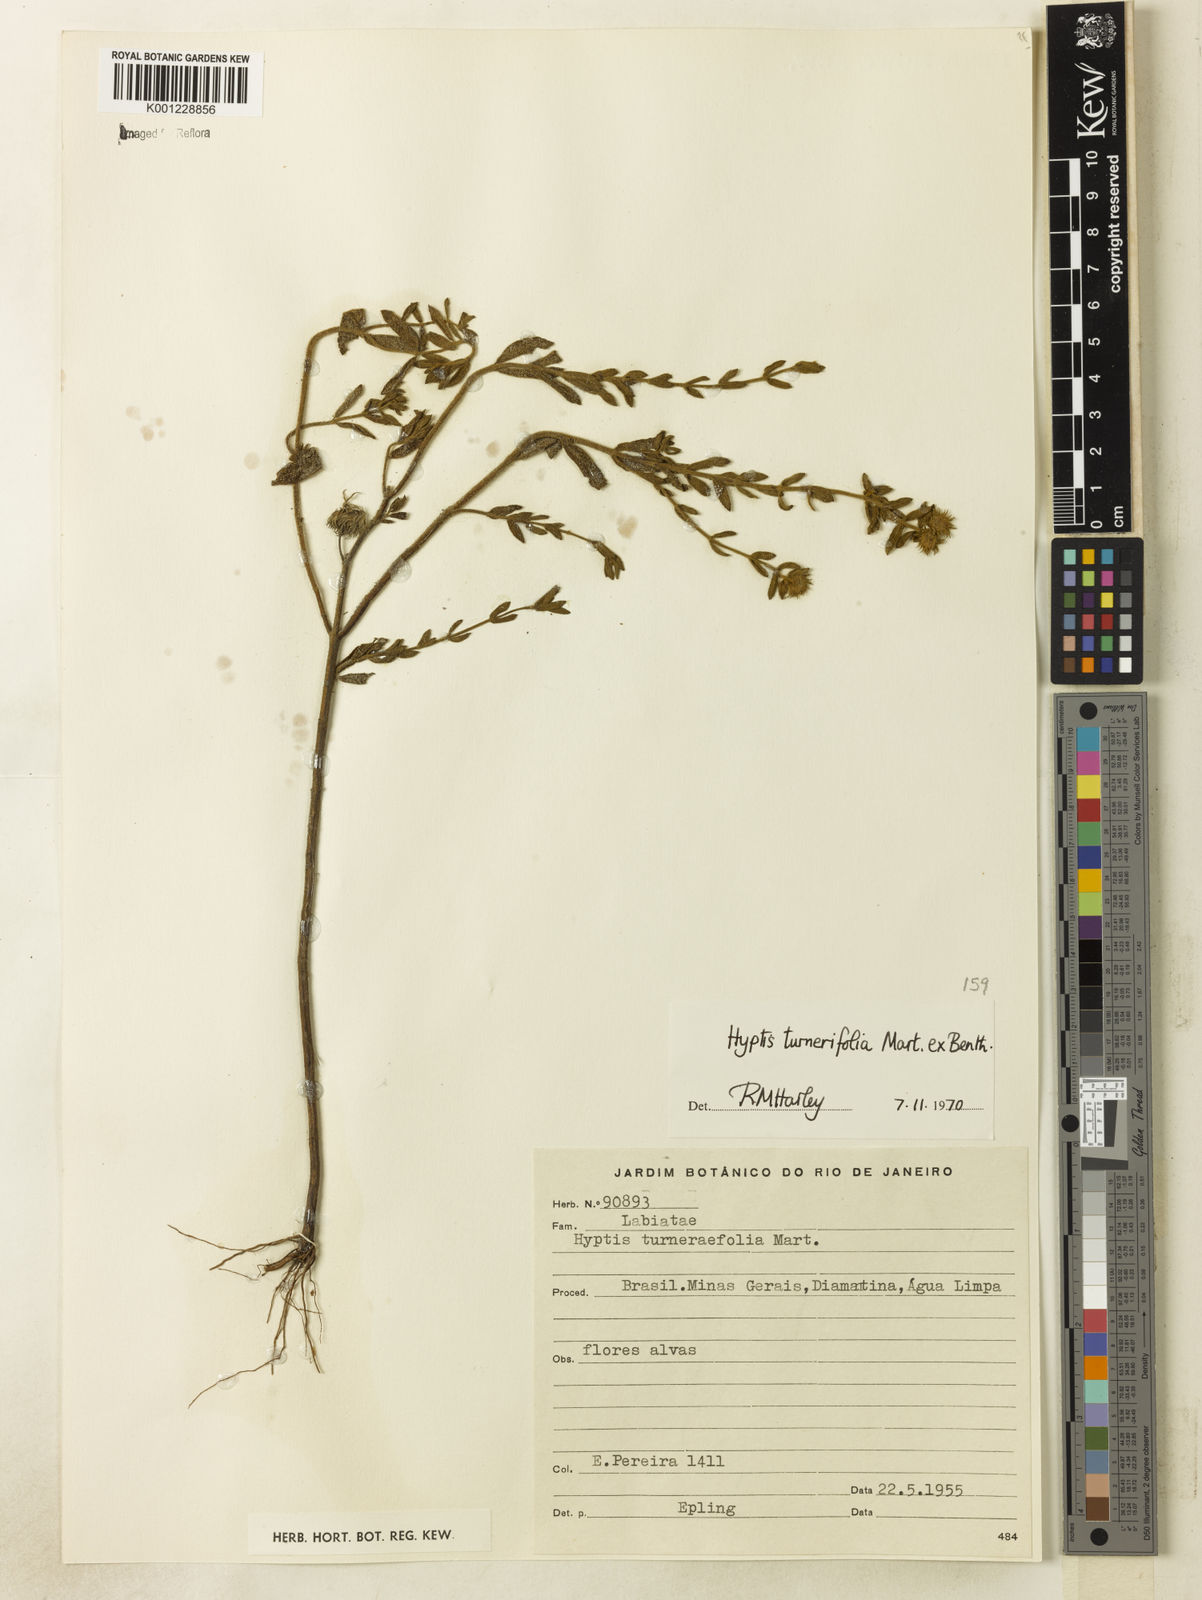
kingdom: Plantae
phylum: Tracheophyta
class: Magnoliopsida
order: Lamiales
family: Lamiaceae
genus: Hyptis
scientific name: Hyptis turnerifolia
